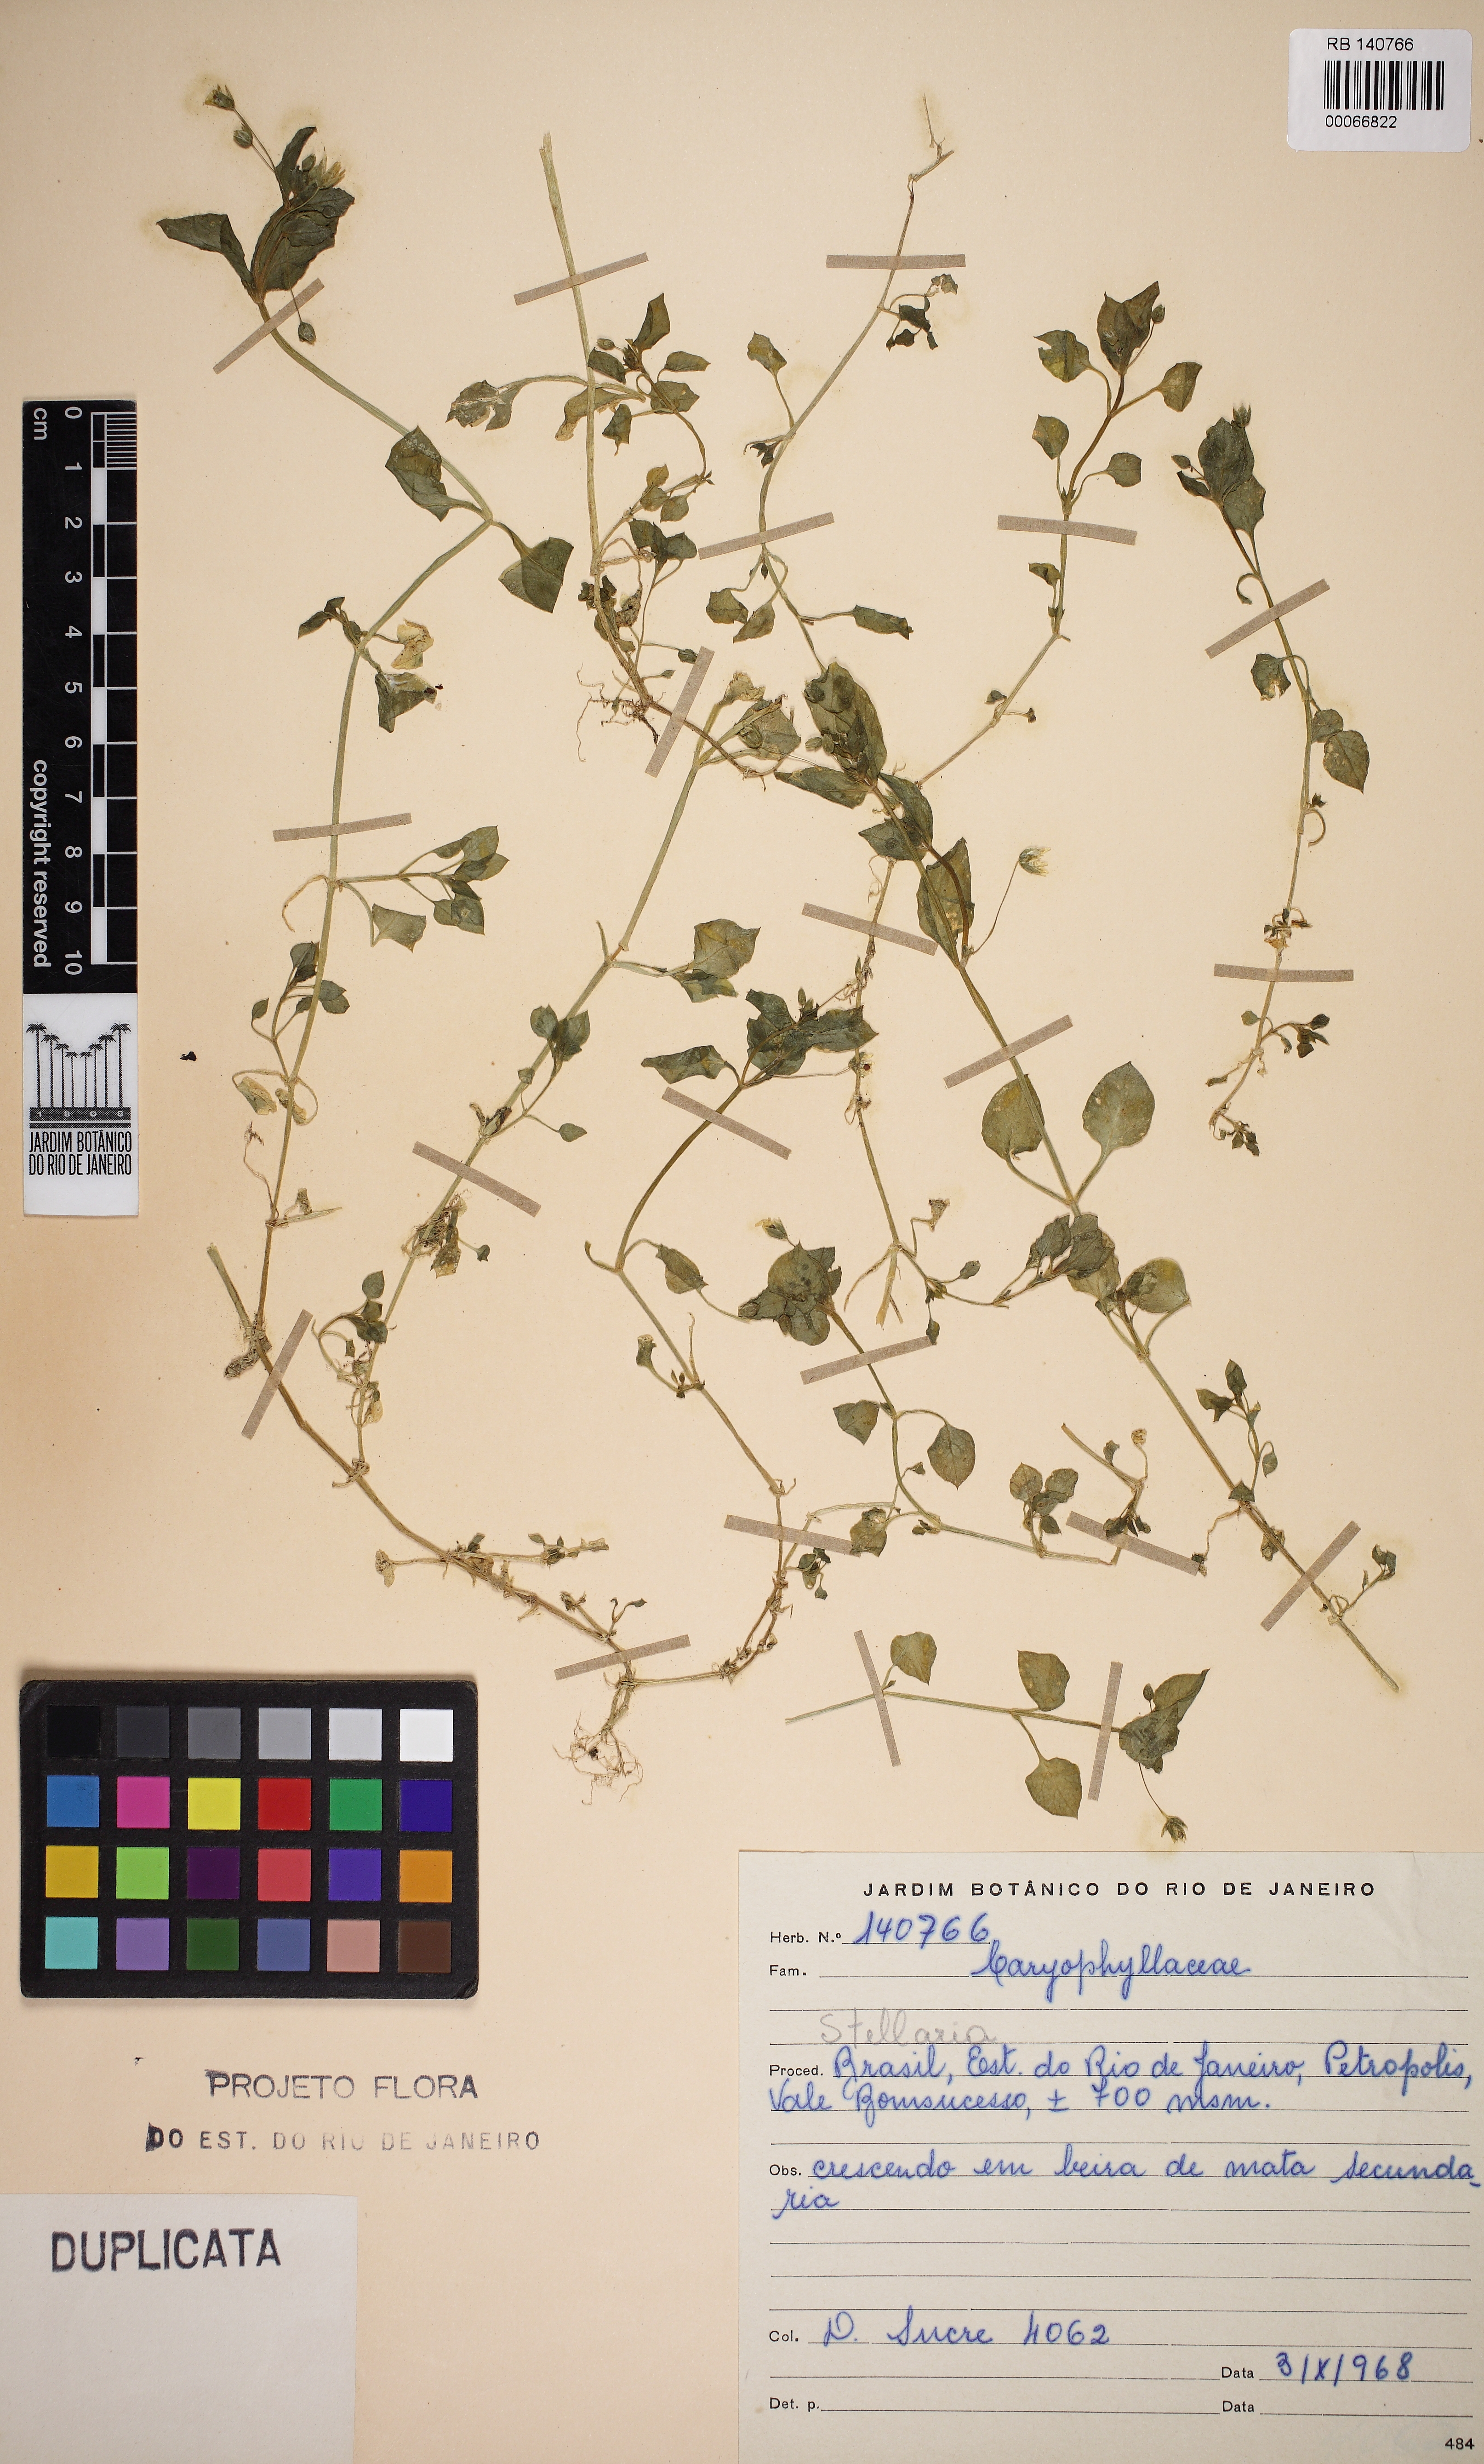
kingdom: Plantae
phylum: Tracheophyta
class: Magnoliopsida
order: Caryophyllales
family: Caryophyllaceae
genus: Stellaria
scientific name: Stellaria
